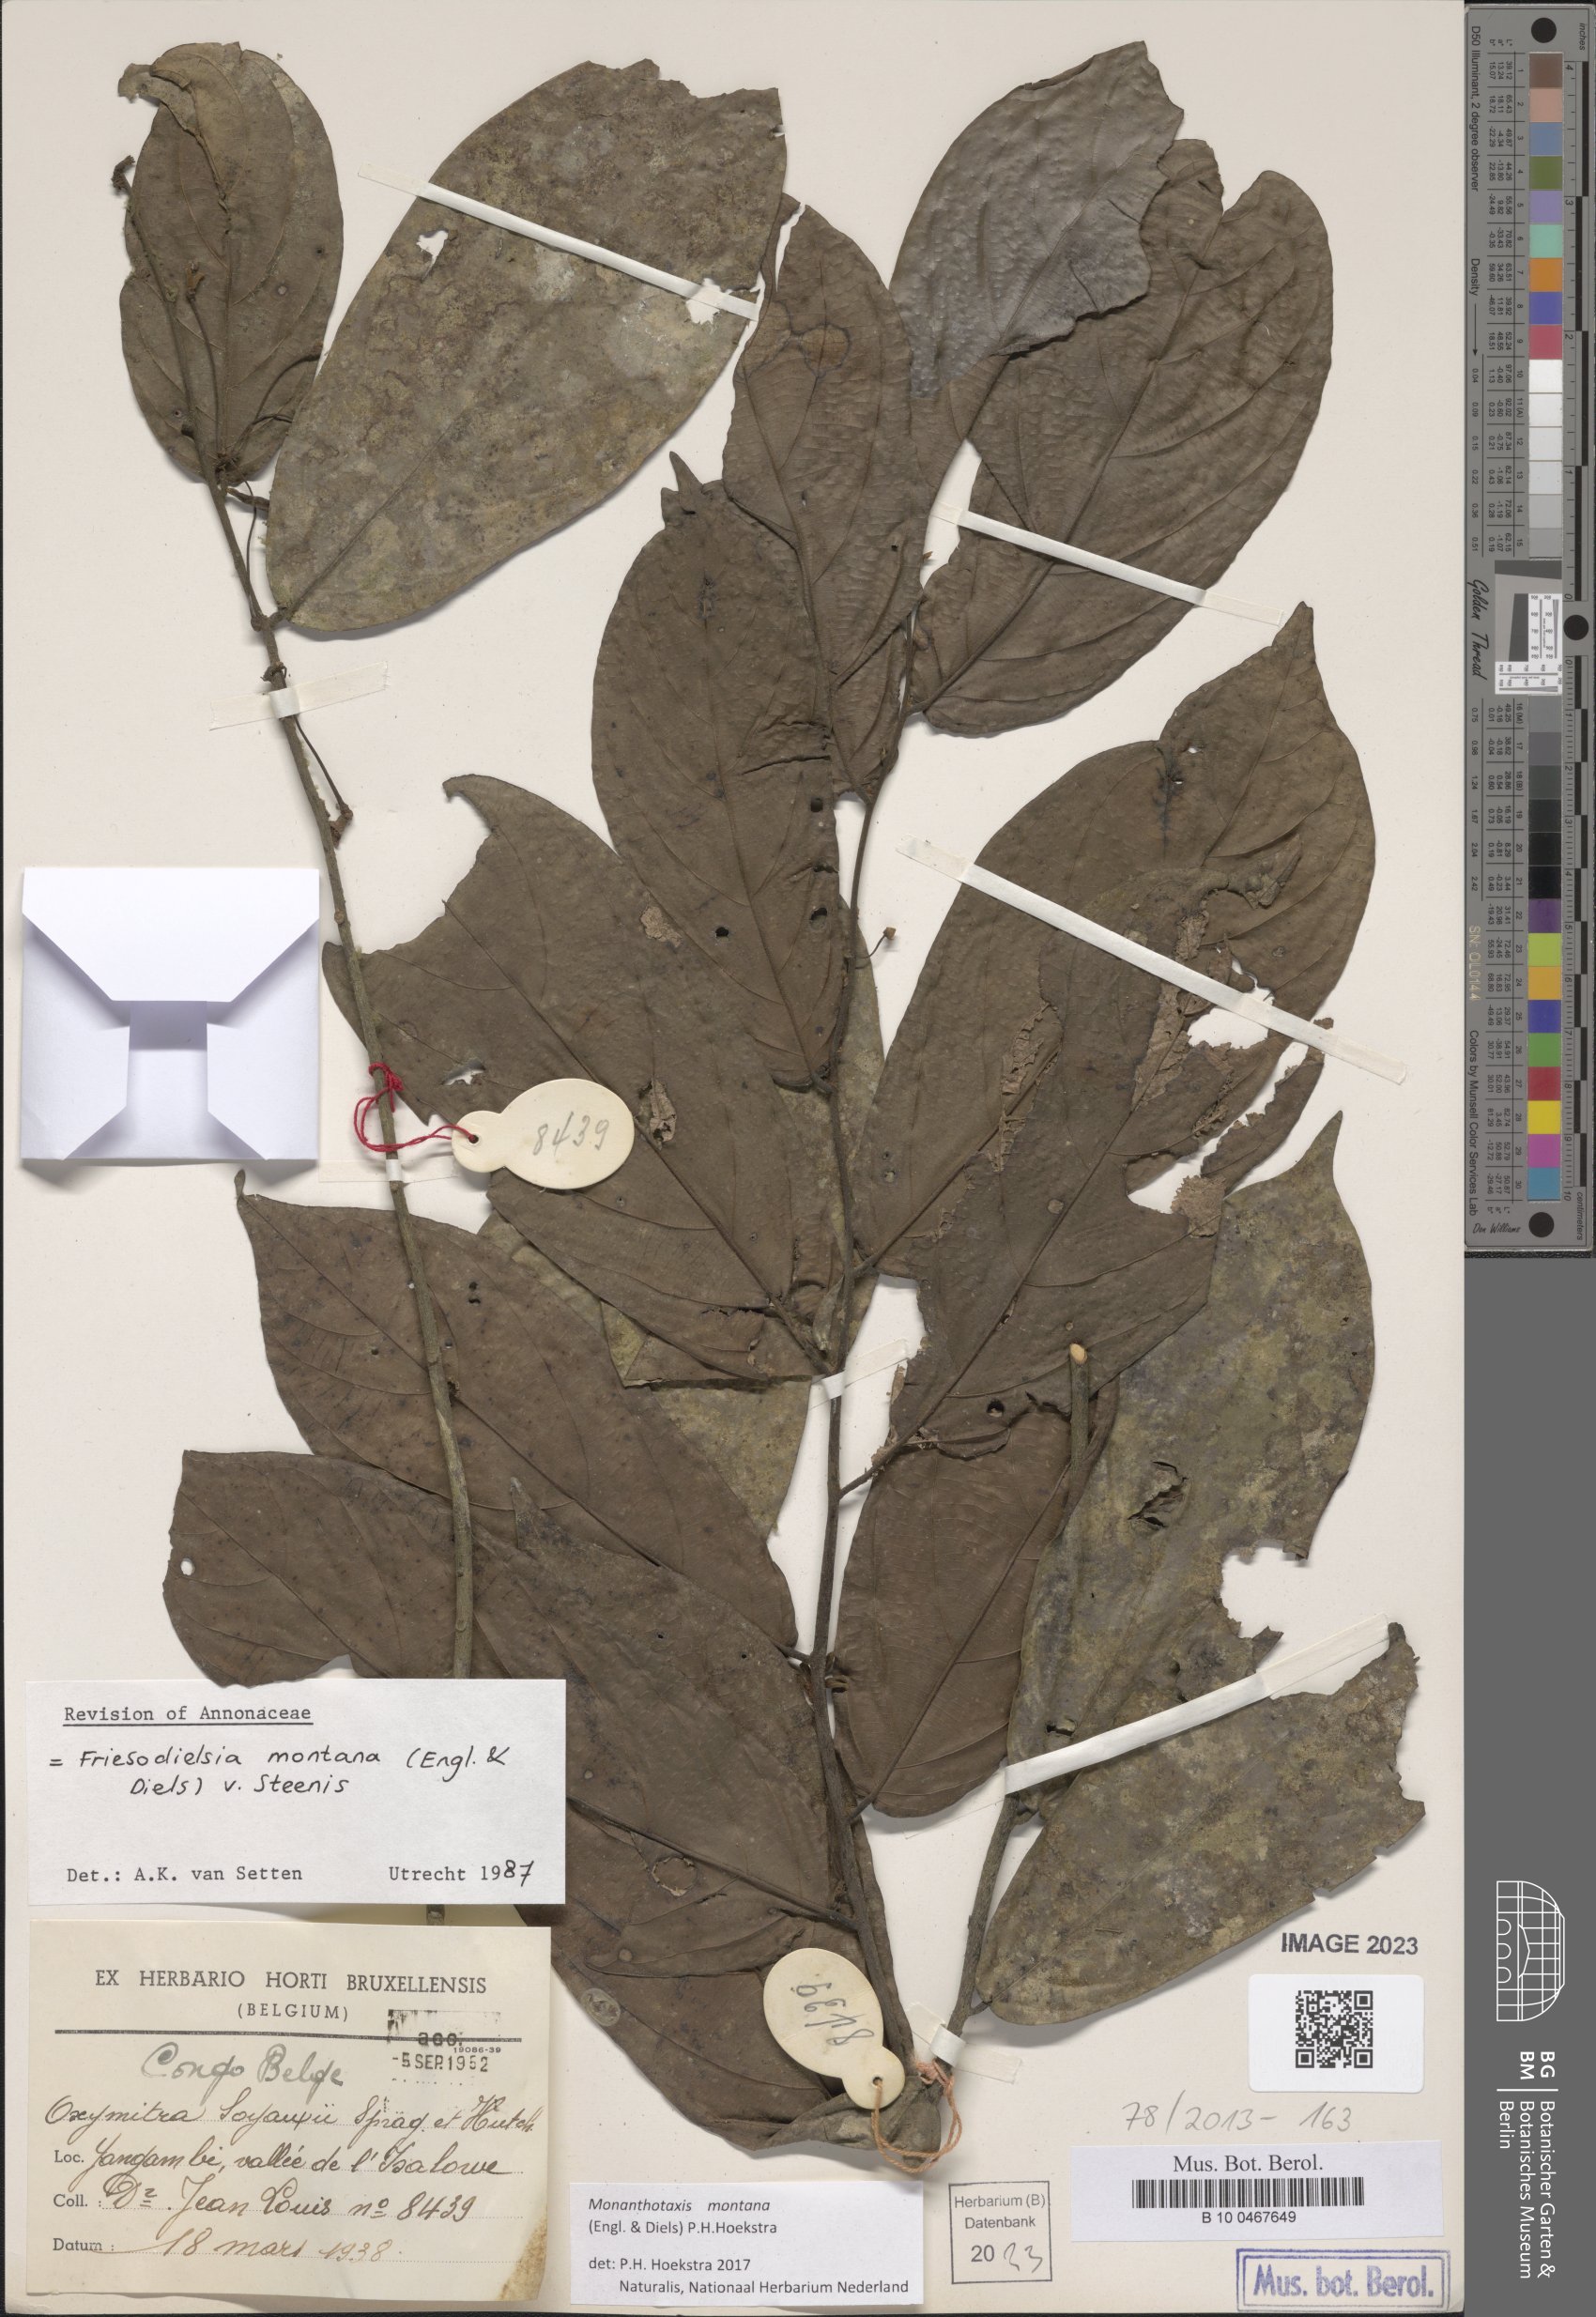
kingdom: Plantae
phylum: Tracheophyta
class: Magnoliopsida
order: Magnoliales
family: Annonaceae
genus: Friesodielsia
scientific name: Friesodielsia montana
